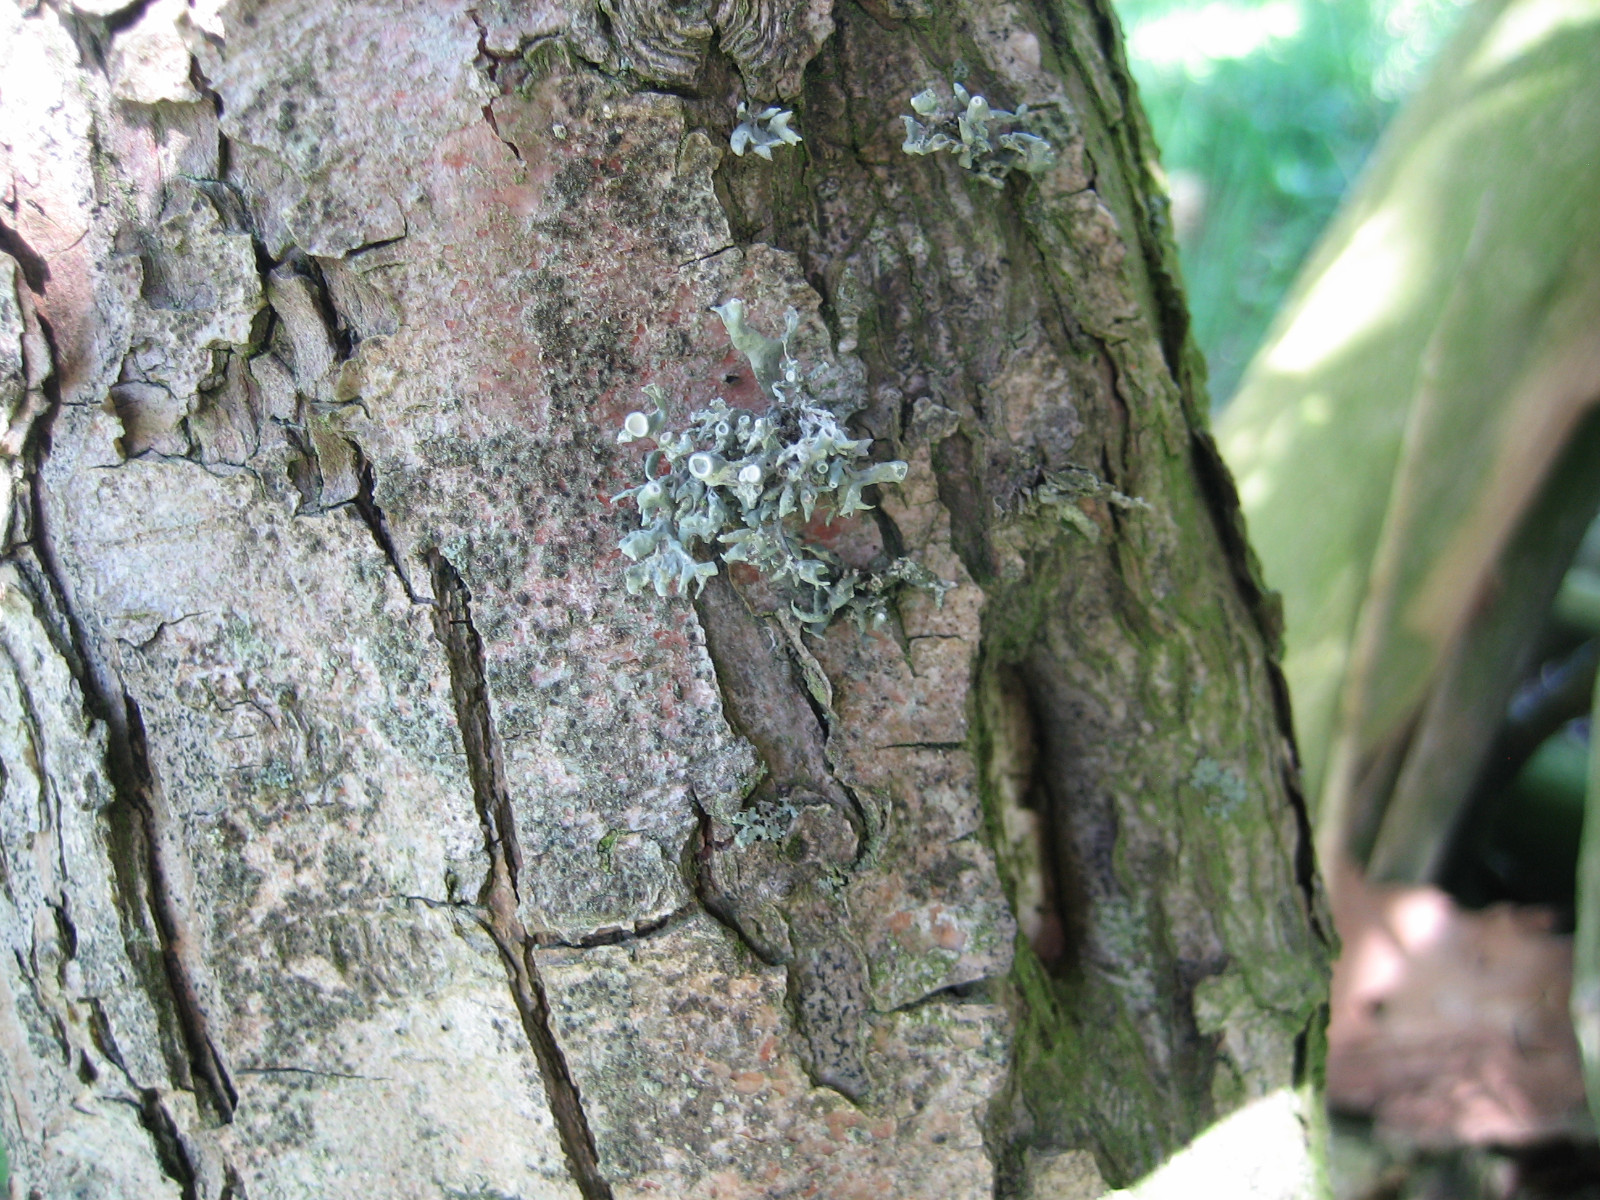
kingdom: Fungi
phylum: Ascomycota
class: Lecanoromycetes
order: Lecanorales
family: Ramalinaceae
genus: Ramalina
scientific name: Ramalina fastigiata
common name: tue-grenlav
